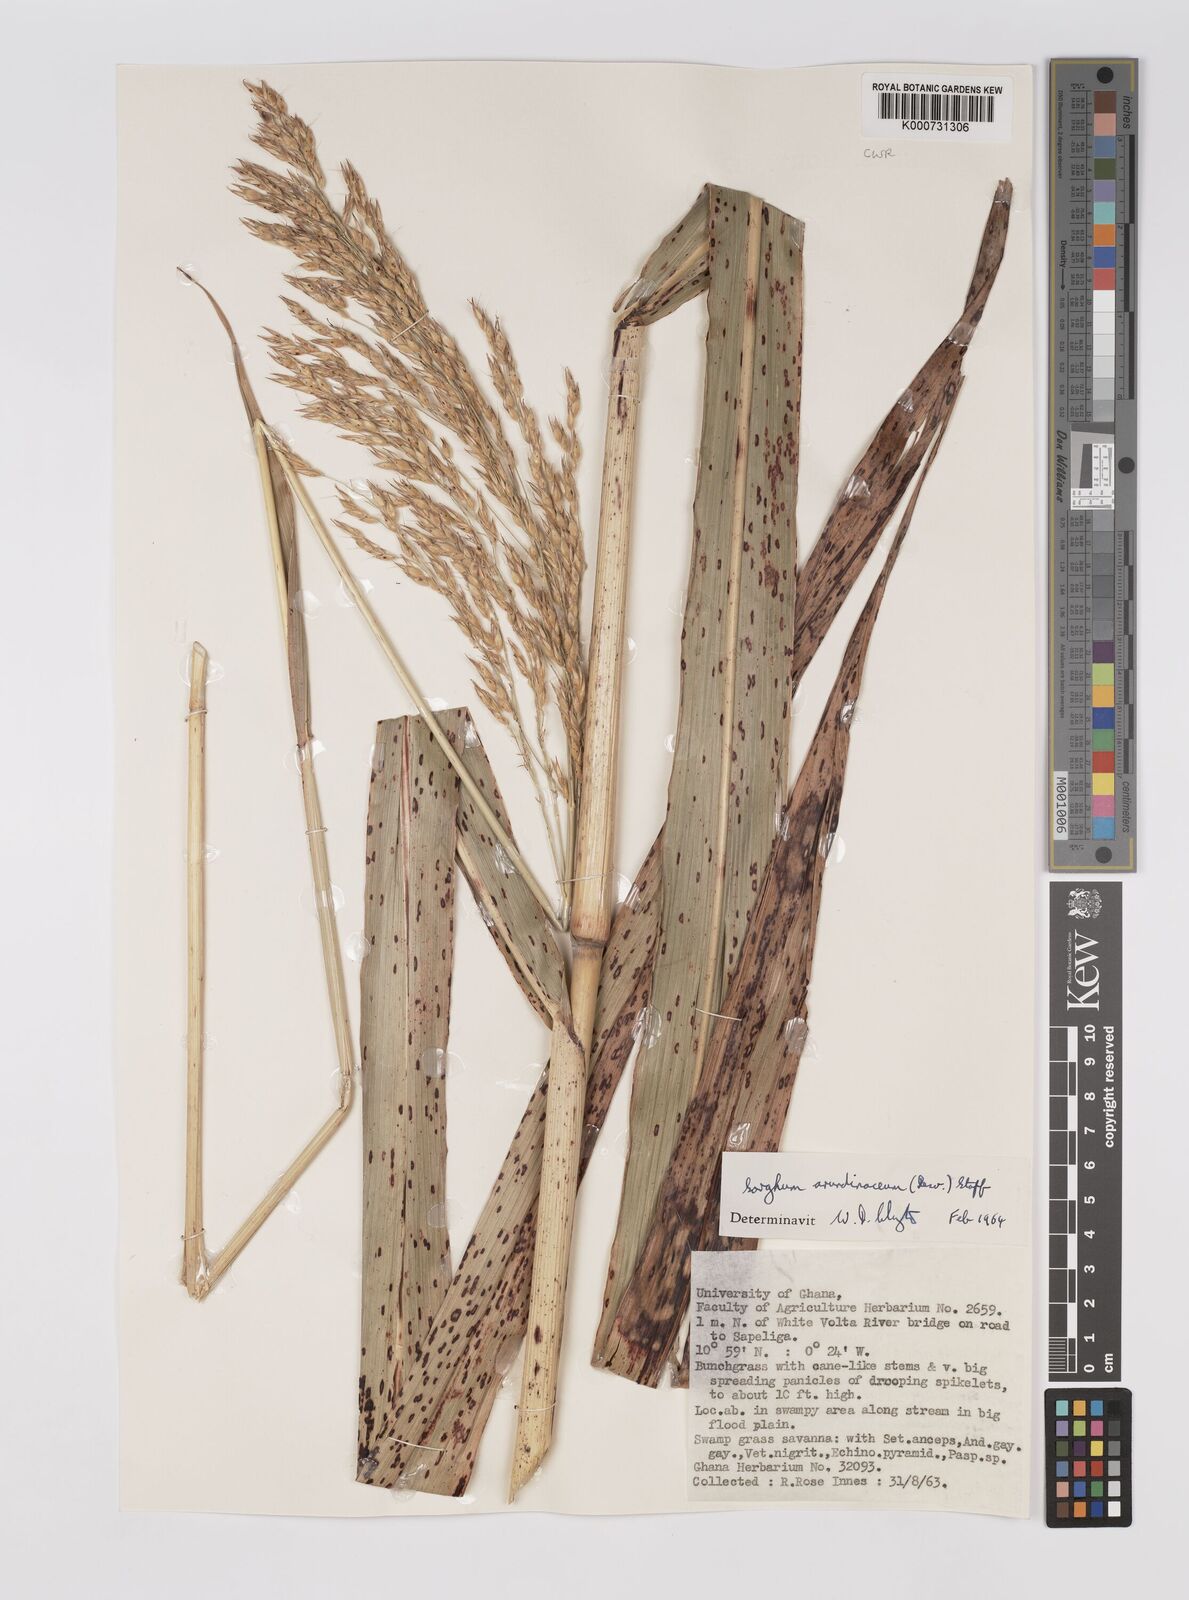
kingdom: Plantae
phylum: Tracheophyta
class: Liliopsida
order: Poales
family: Poaceae
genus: Sorghum
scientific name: Sorghum arundinaceum
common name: Sorghum
